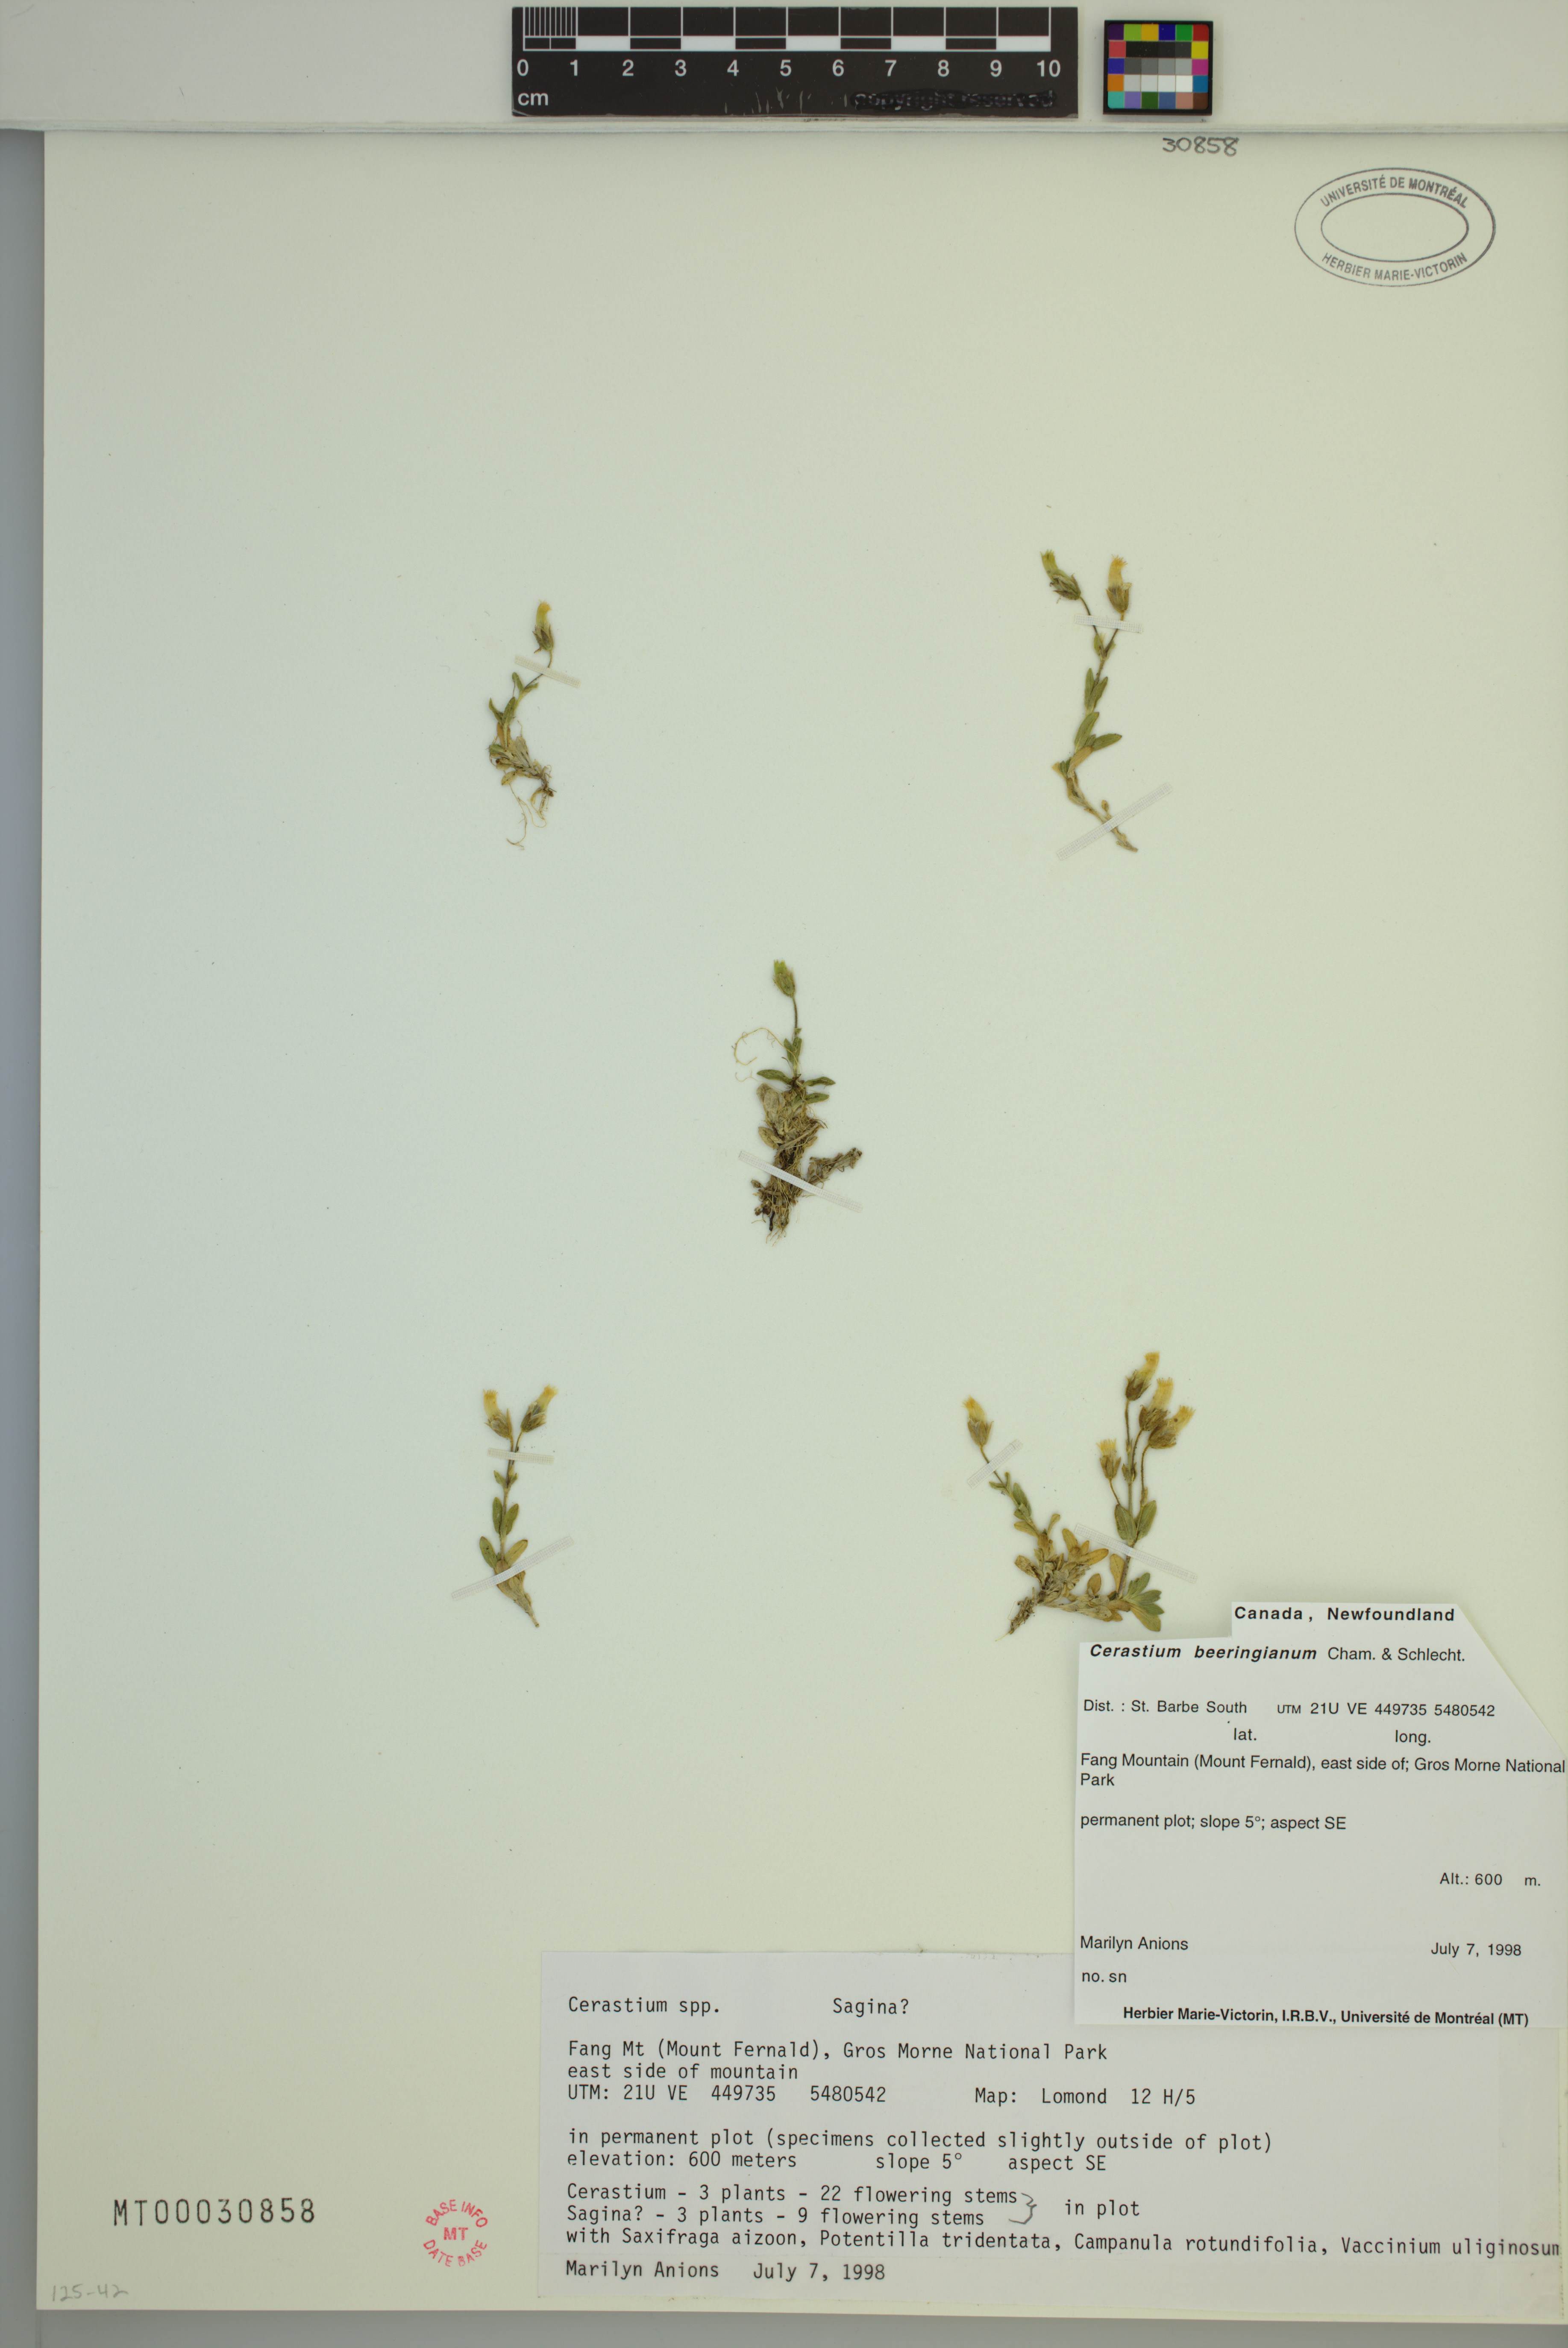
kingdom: Plantae
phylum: Tracheophyta
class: Magnoliopsida
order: Caryophyllales
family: Caryophyllaceae
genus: Cerastium
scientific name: Cerastium beeringianum
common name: Bering mouse-ear chickweed
